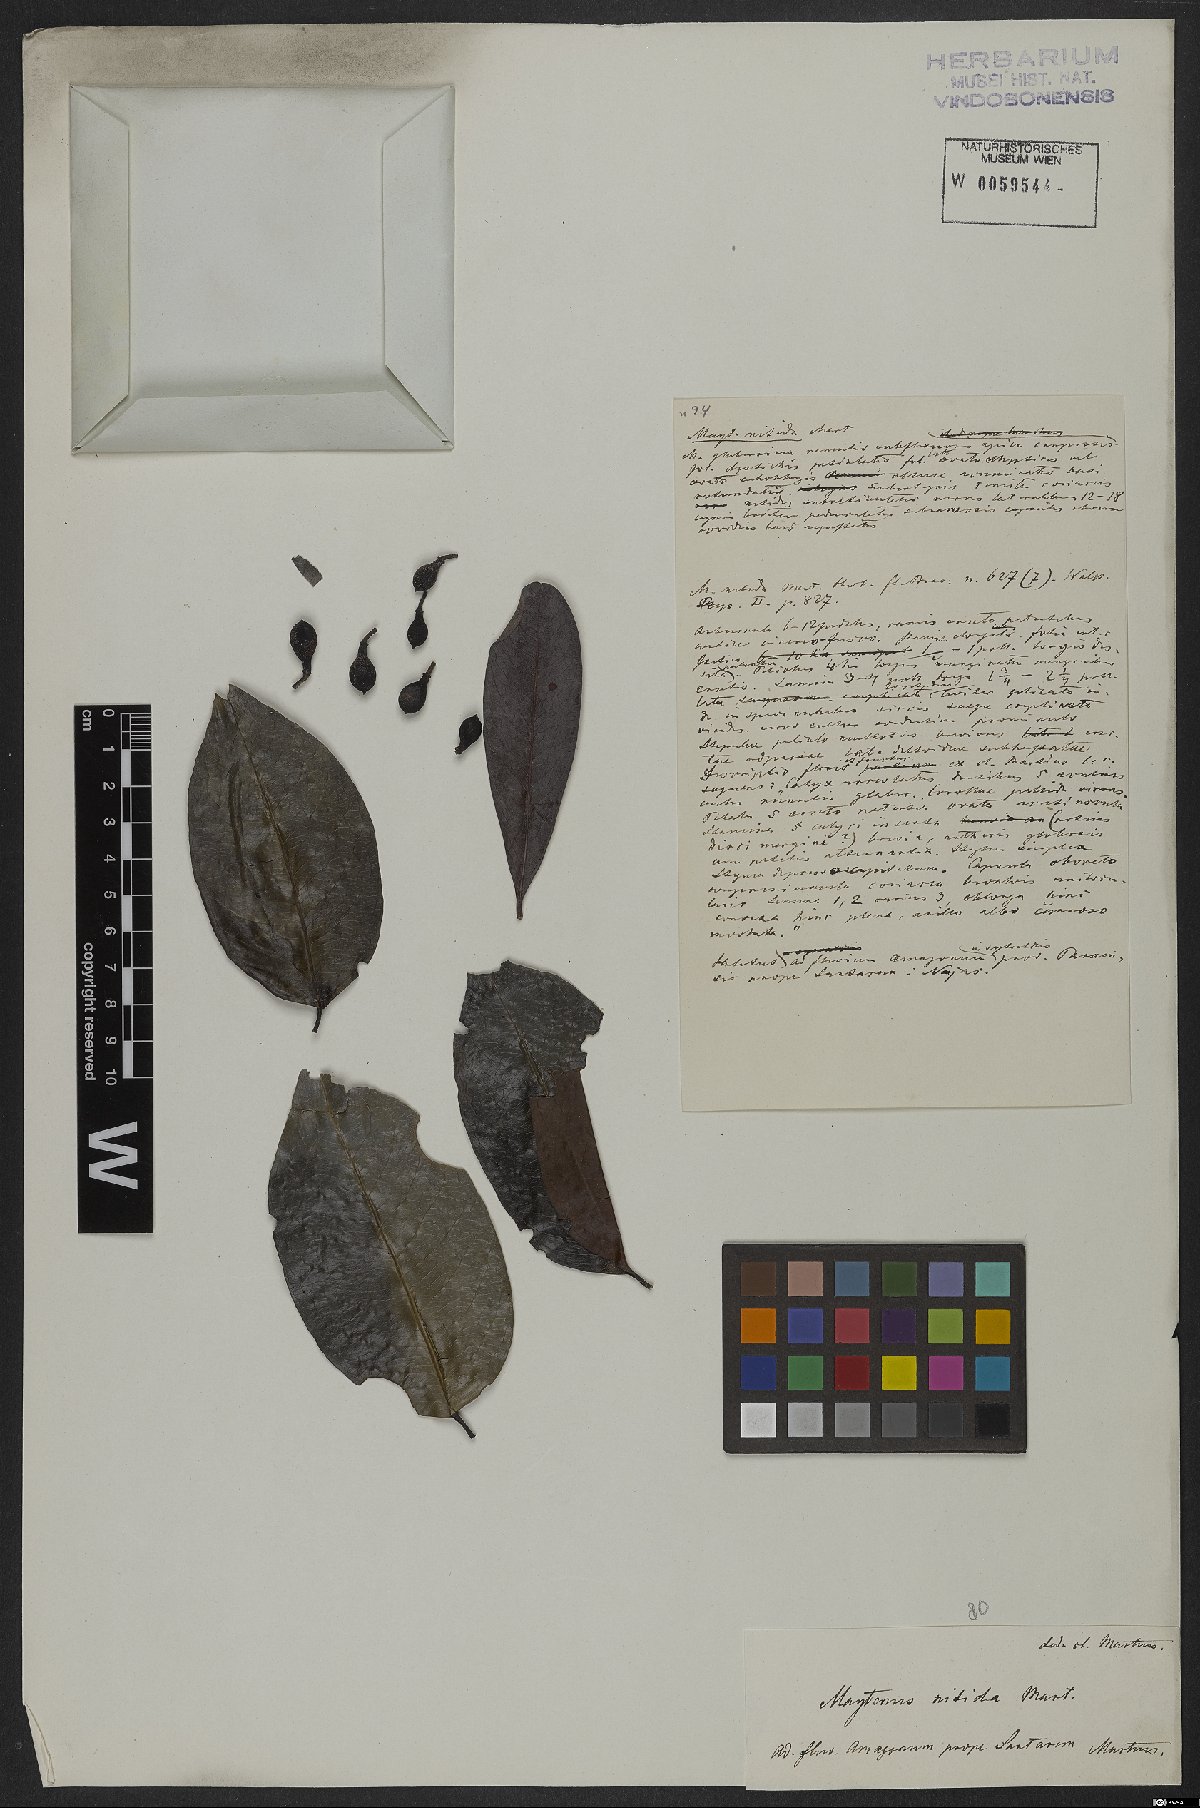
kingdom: Plantae
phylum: Tracheophyta
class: Magnoliopsida
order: Celastrales
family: Celastraceae
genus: Monteverdia
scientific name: Monteverdia nitida
